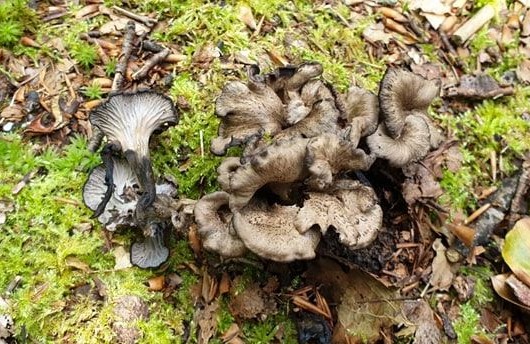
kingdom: Fungi
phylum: Basidiomycota
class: Agaricomycetes
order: Cantharellales
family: Hydnaceae
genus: Cantharellus
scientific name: Cantharellus cinereus
